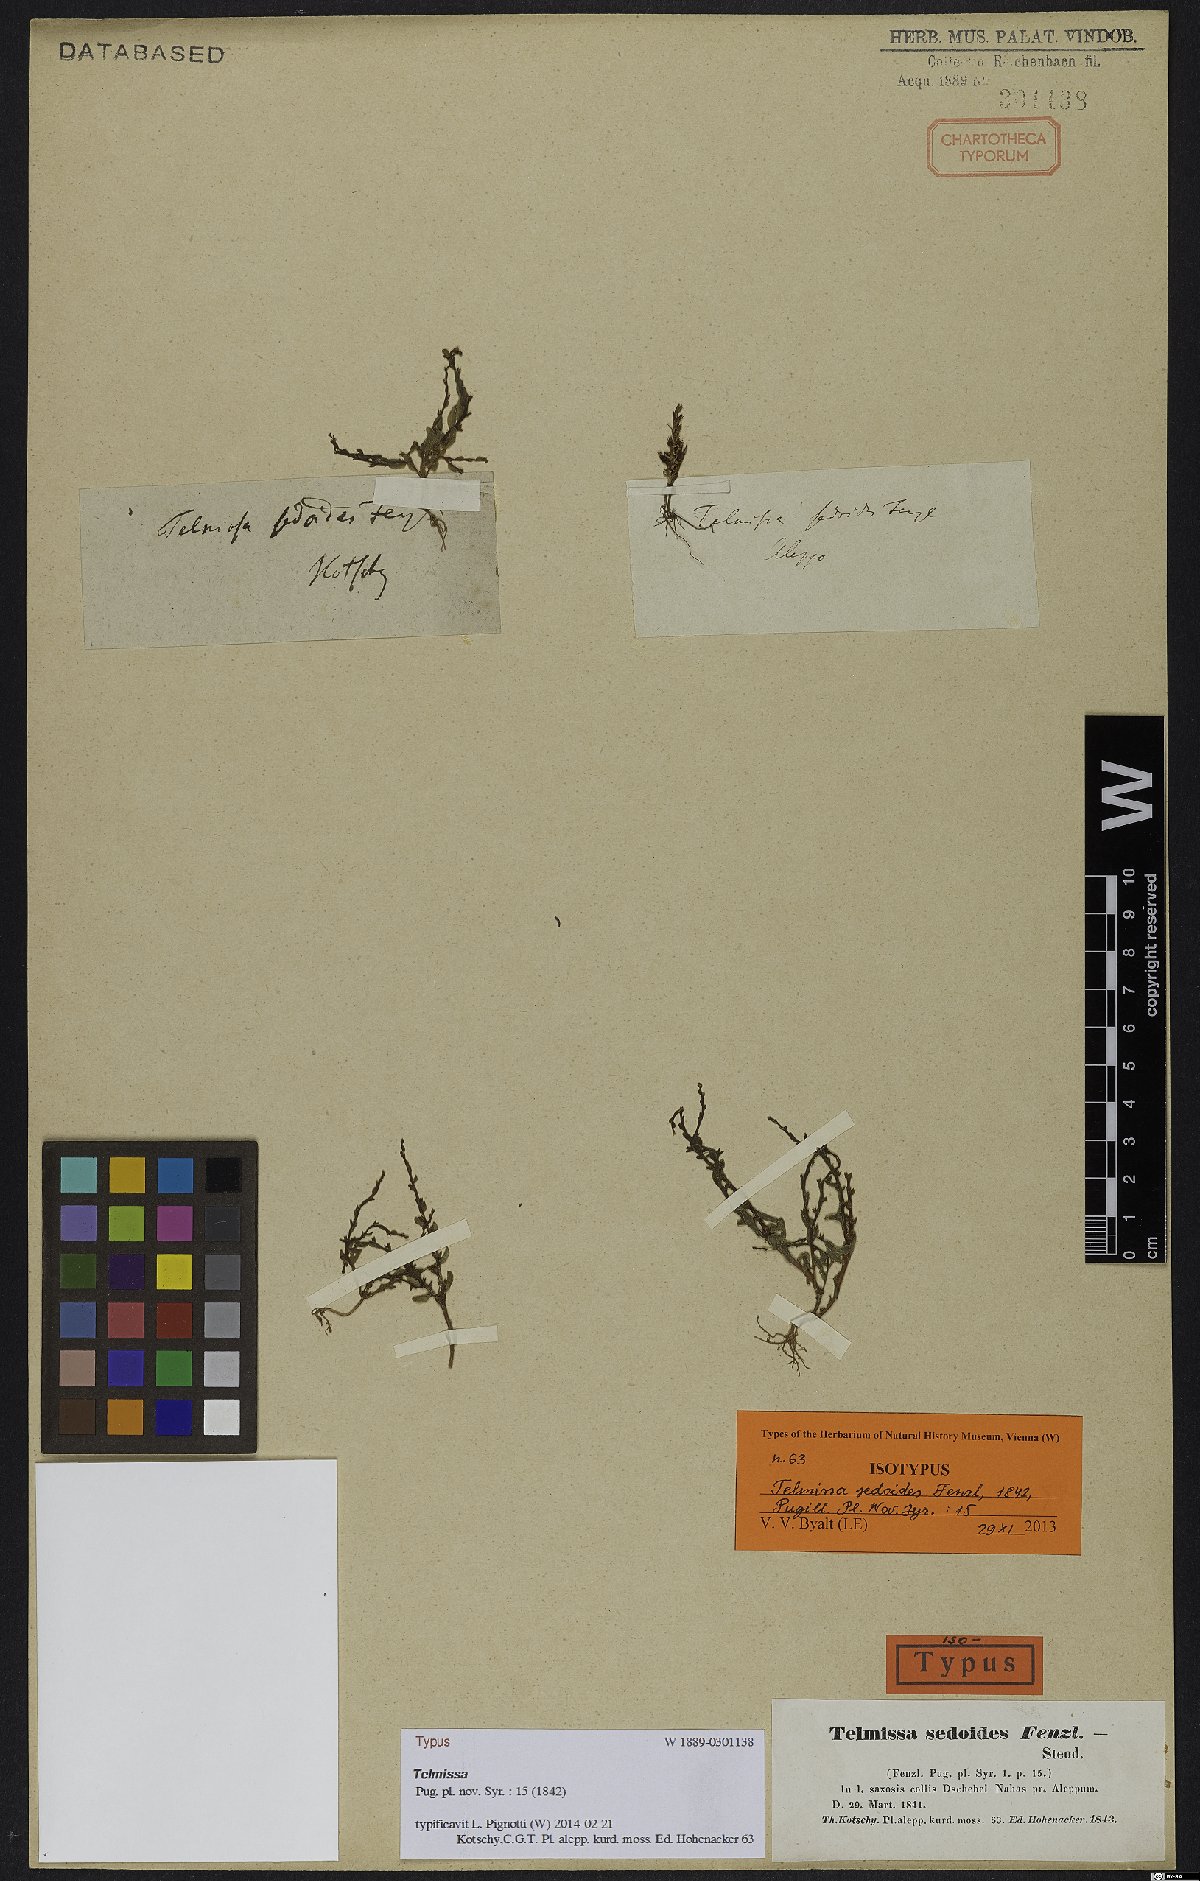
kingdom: Plantae
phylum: Tracheophyta
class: Magnoliopsida
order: Saxifragales
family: Crassulaceae
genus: Sedum
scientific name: Sedum microcarpum
